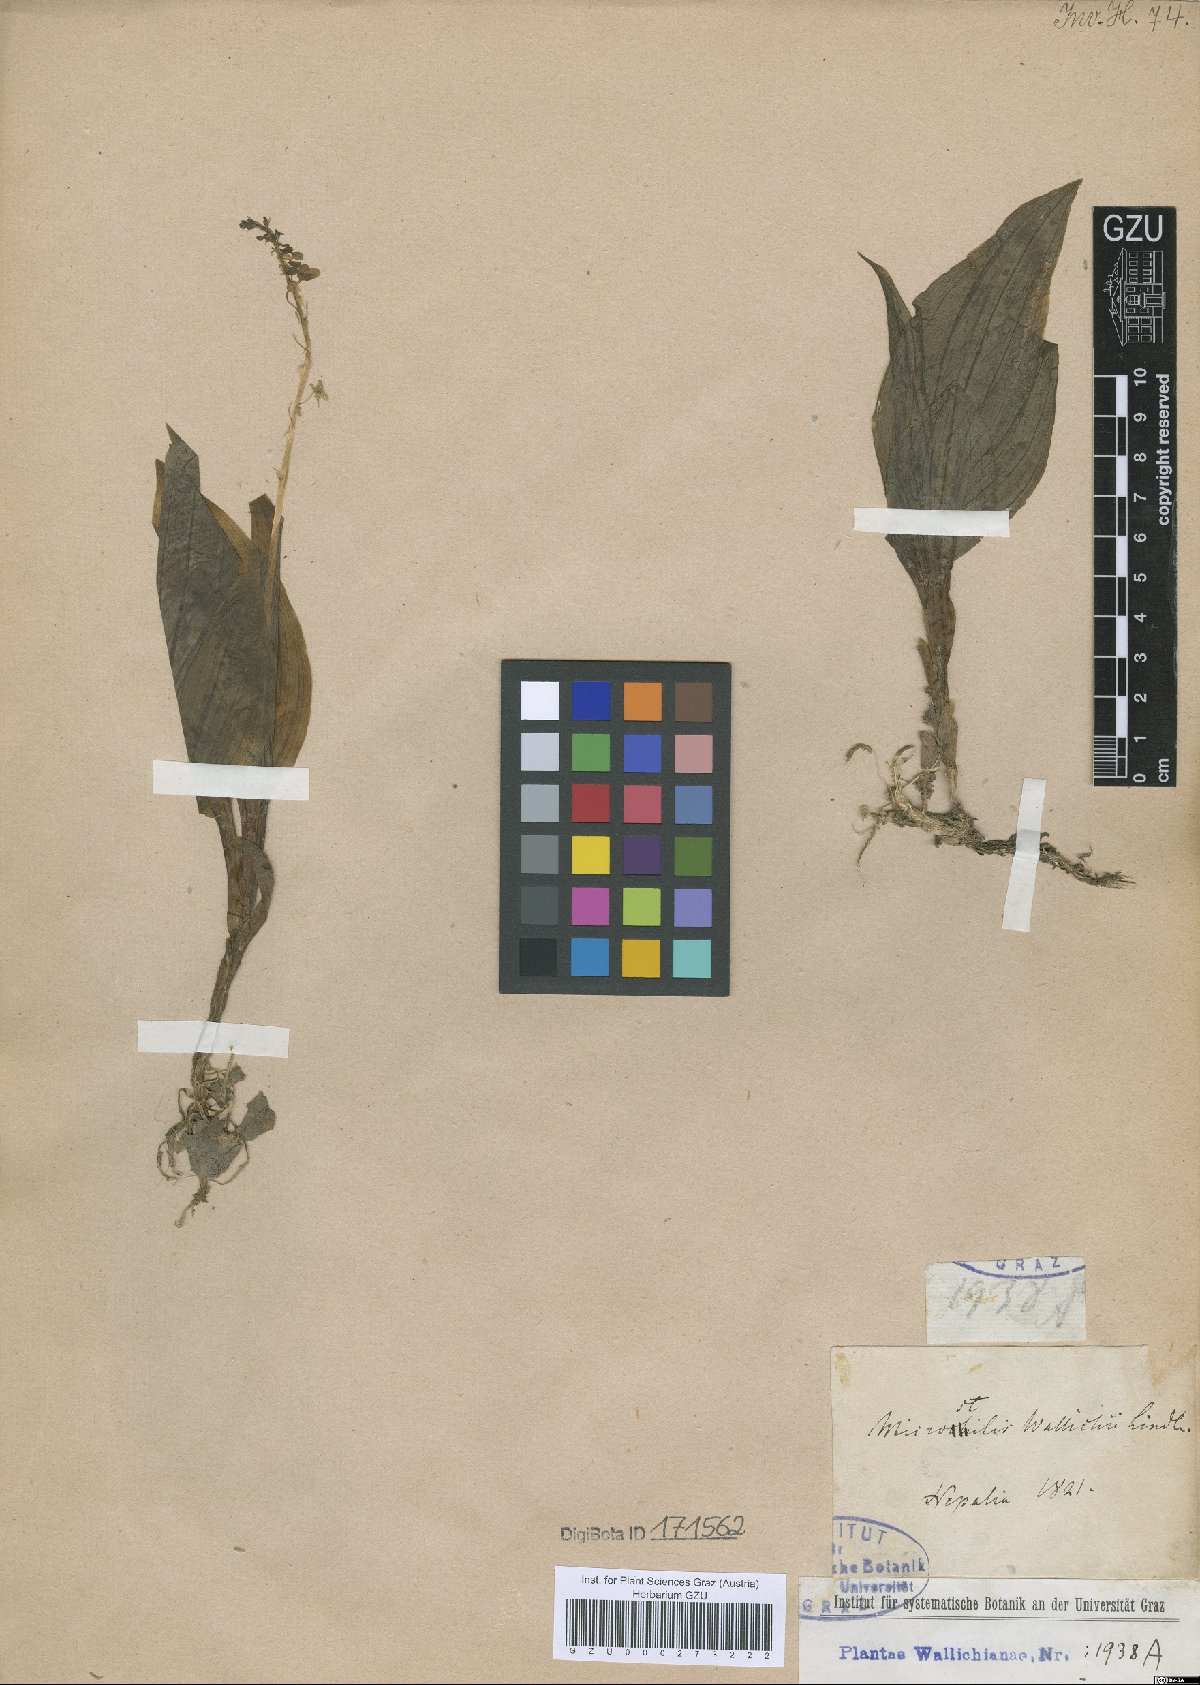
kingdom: Plantae
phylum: Tracheophyta
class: Liliopsida
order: Asparagales
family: Orchidaceae
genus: Crepidium
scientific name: Crepidium acuminatum
